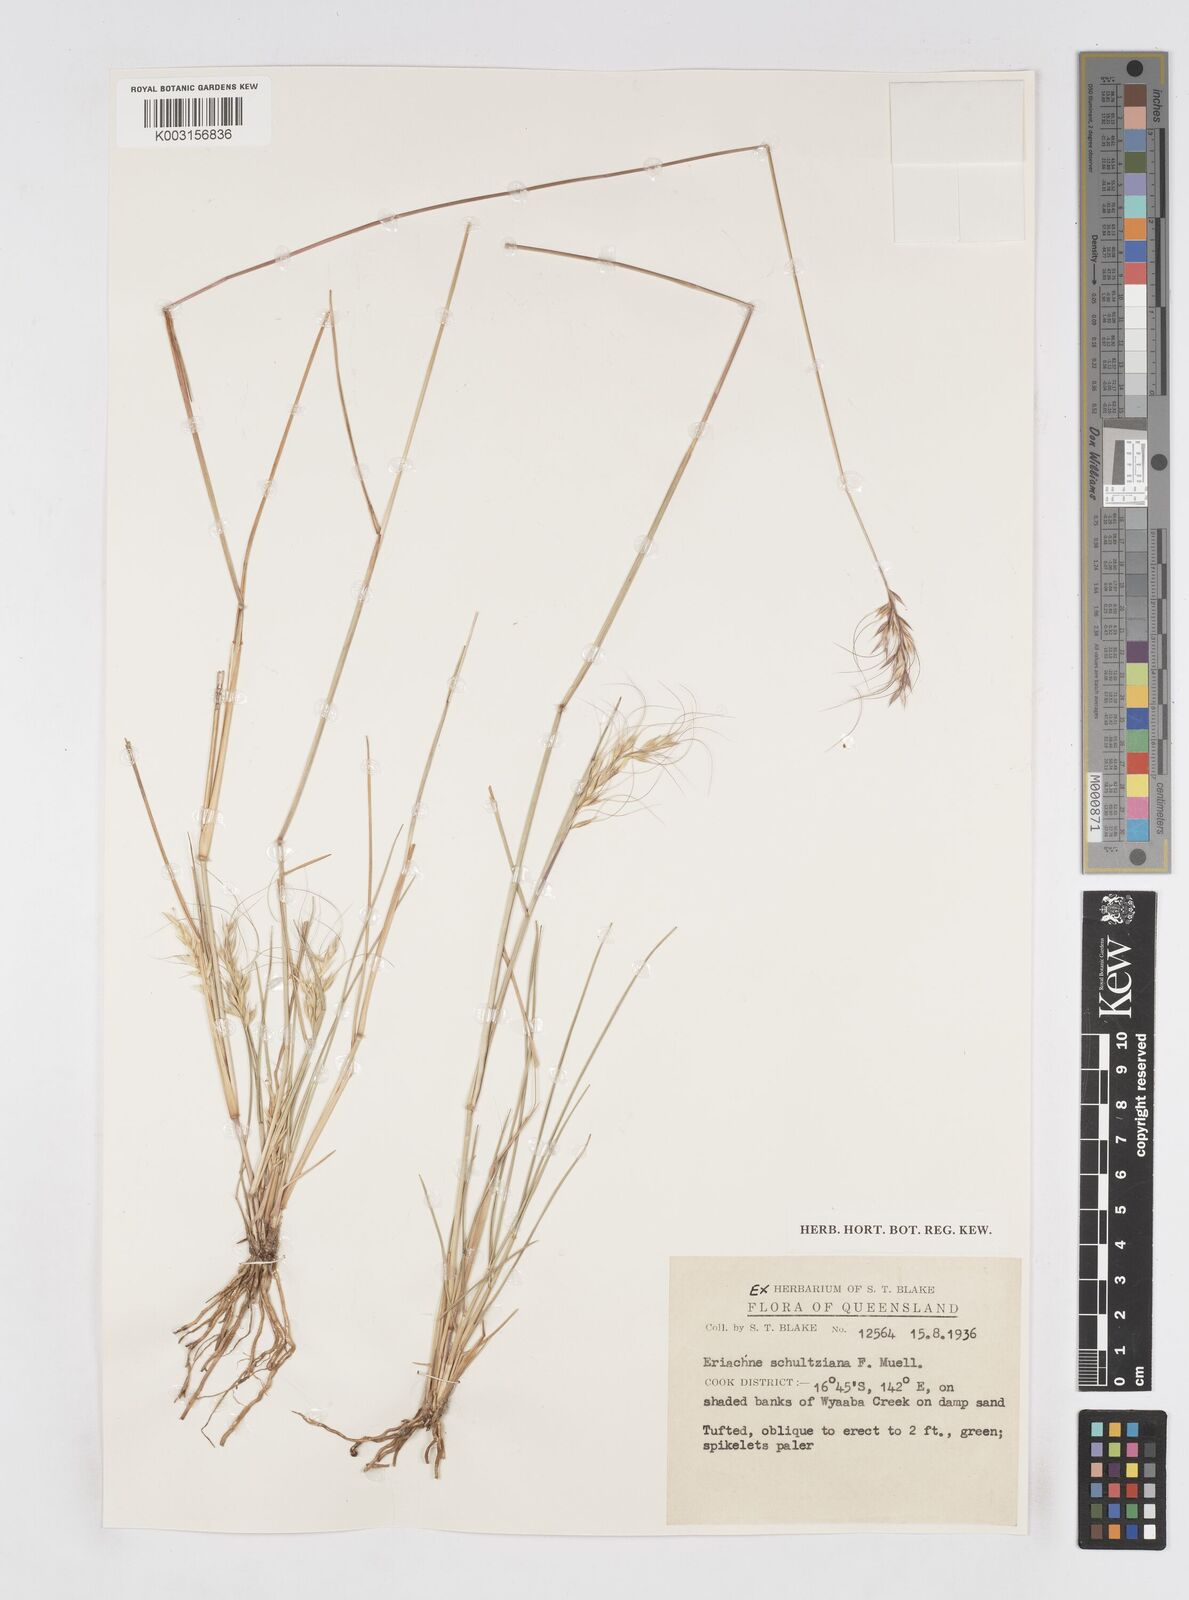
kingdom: Plantae
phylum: Tracheophyta
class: Liliopsida
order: Poales
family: Poaceae
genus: Eriachne
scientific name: Eriachne schultziana
